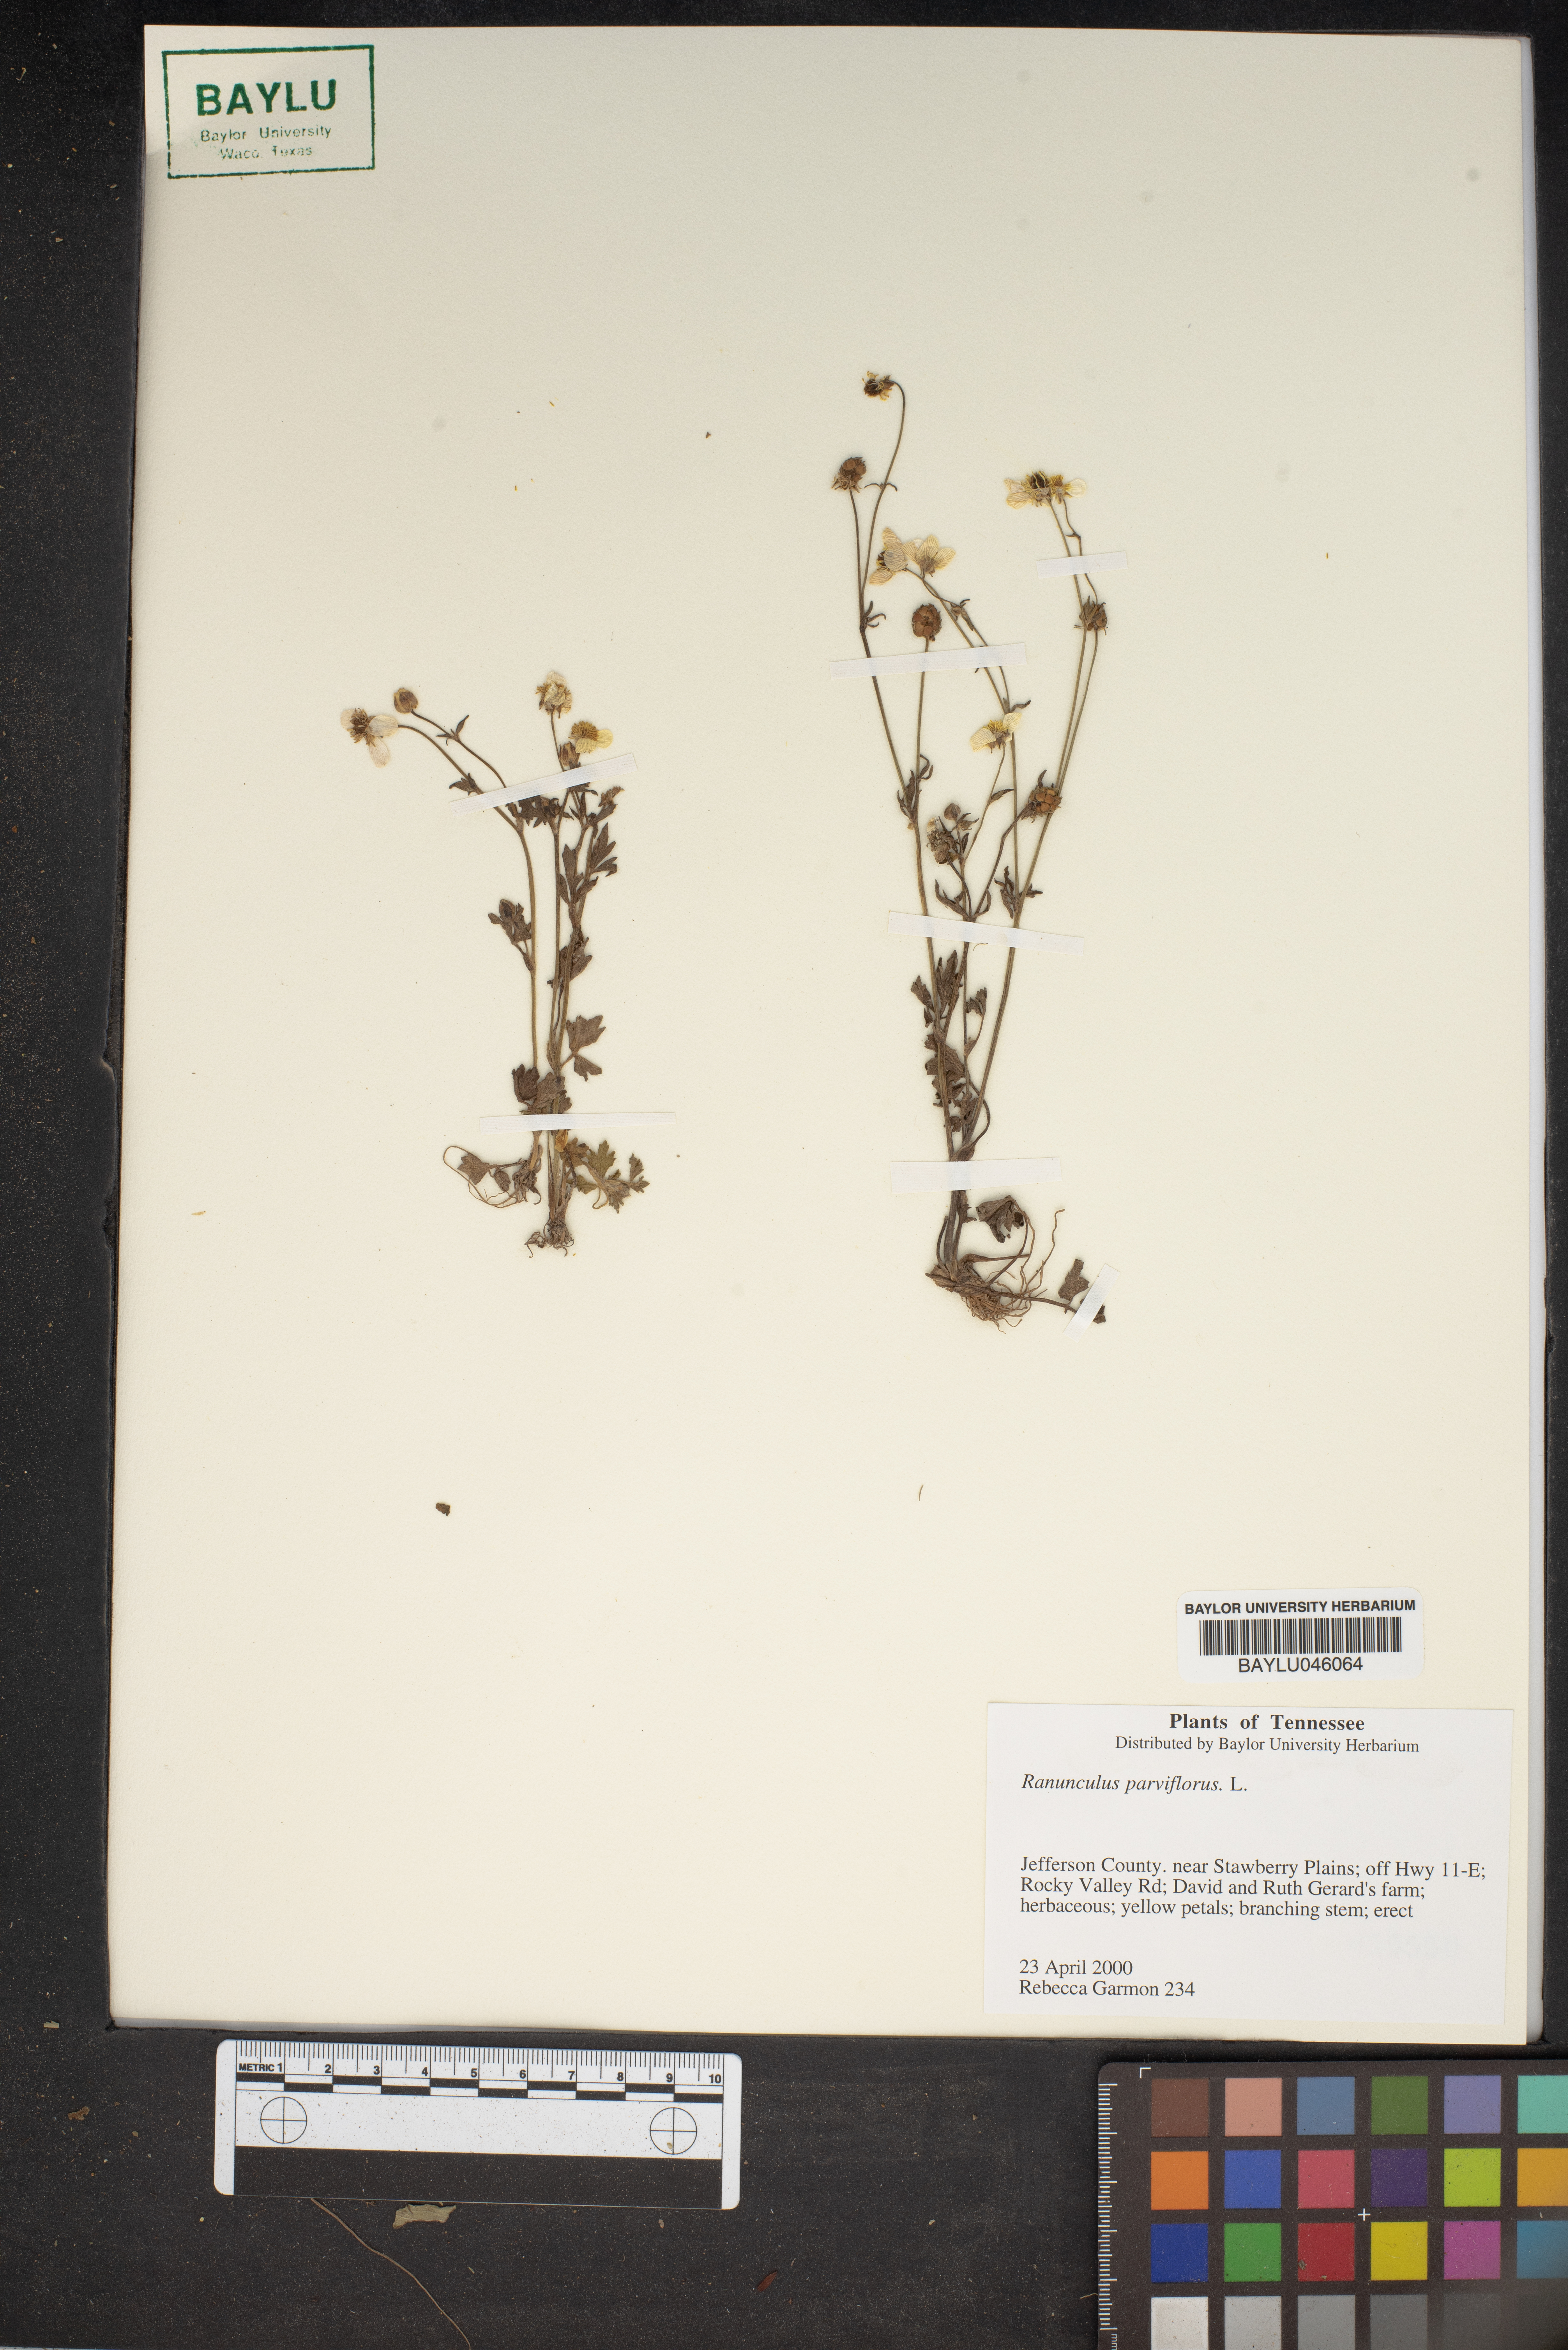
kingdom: Plantae
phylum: Tracheophyta
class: Magnoliopsida
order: Ranunculales
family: Ranunculaceae
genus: Ranunculus
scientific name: Ranunculus parviflorus
